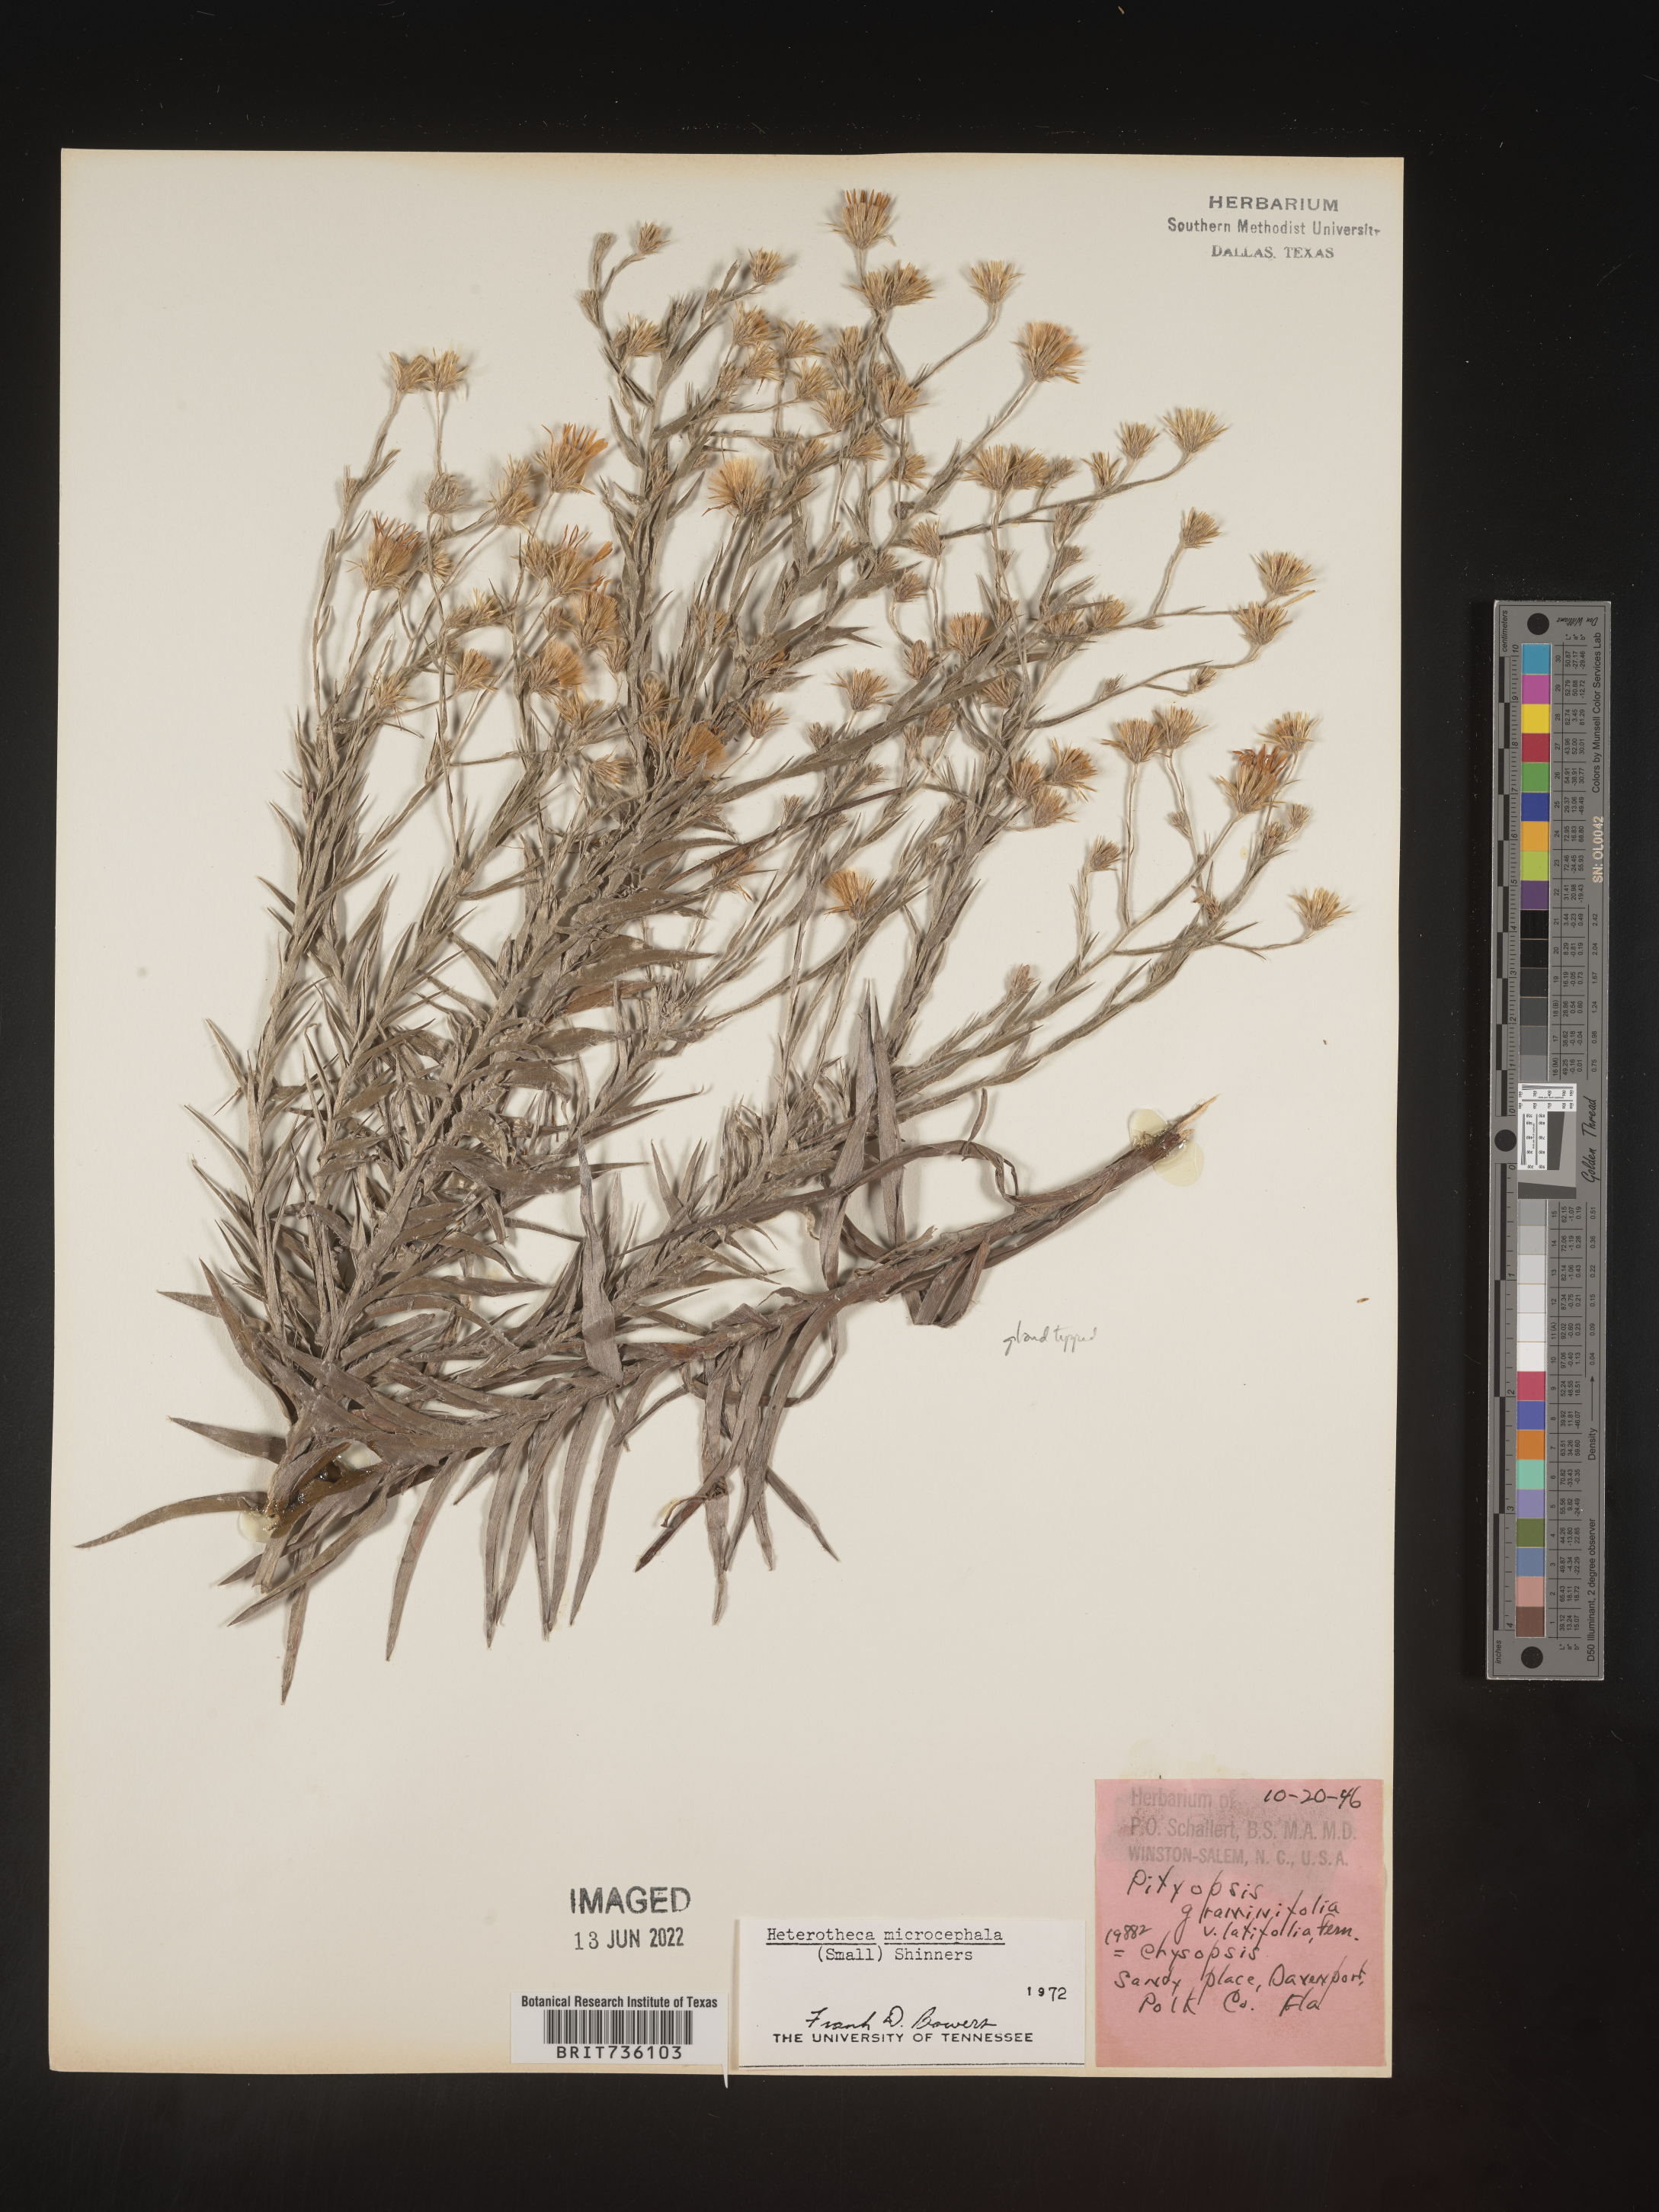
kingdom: Plantae
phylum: Tracheophyta
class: Magnoliopsida
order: Asterales
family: Asteraceae
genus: Pityopsis
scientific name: Pityopsis aequilifolia
